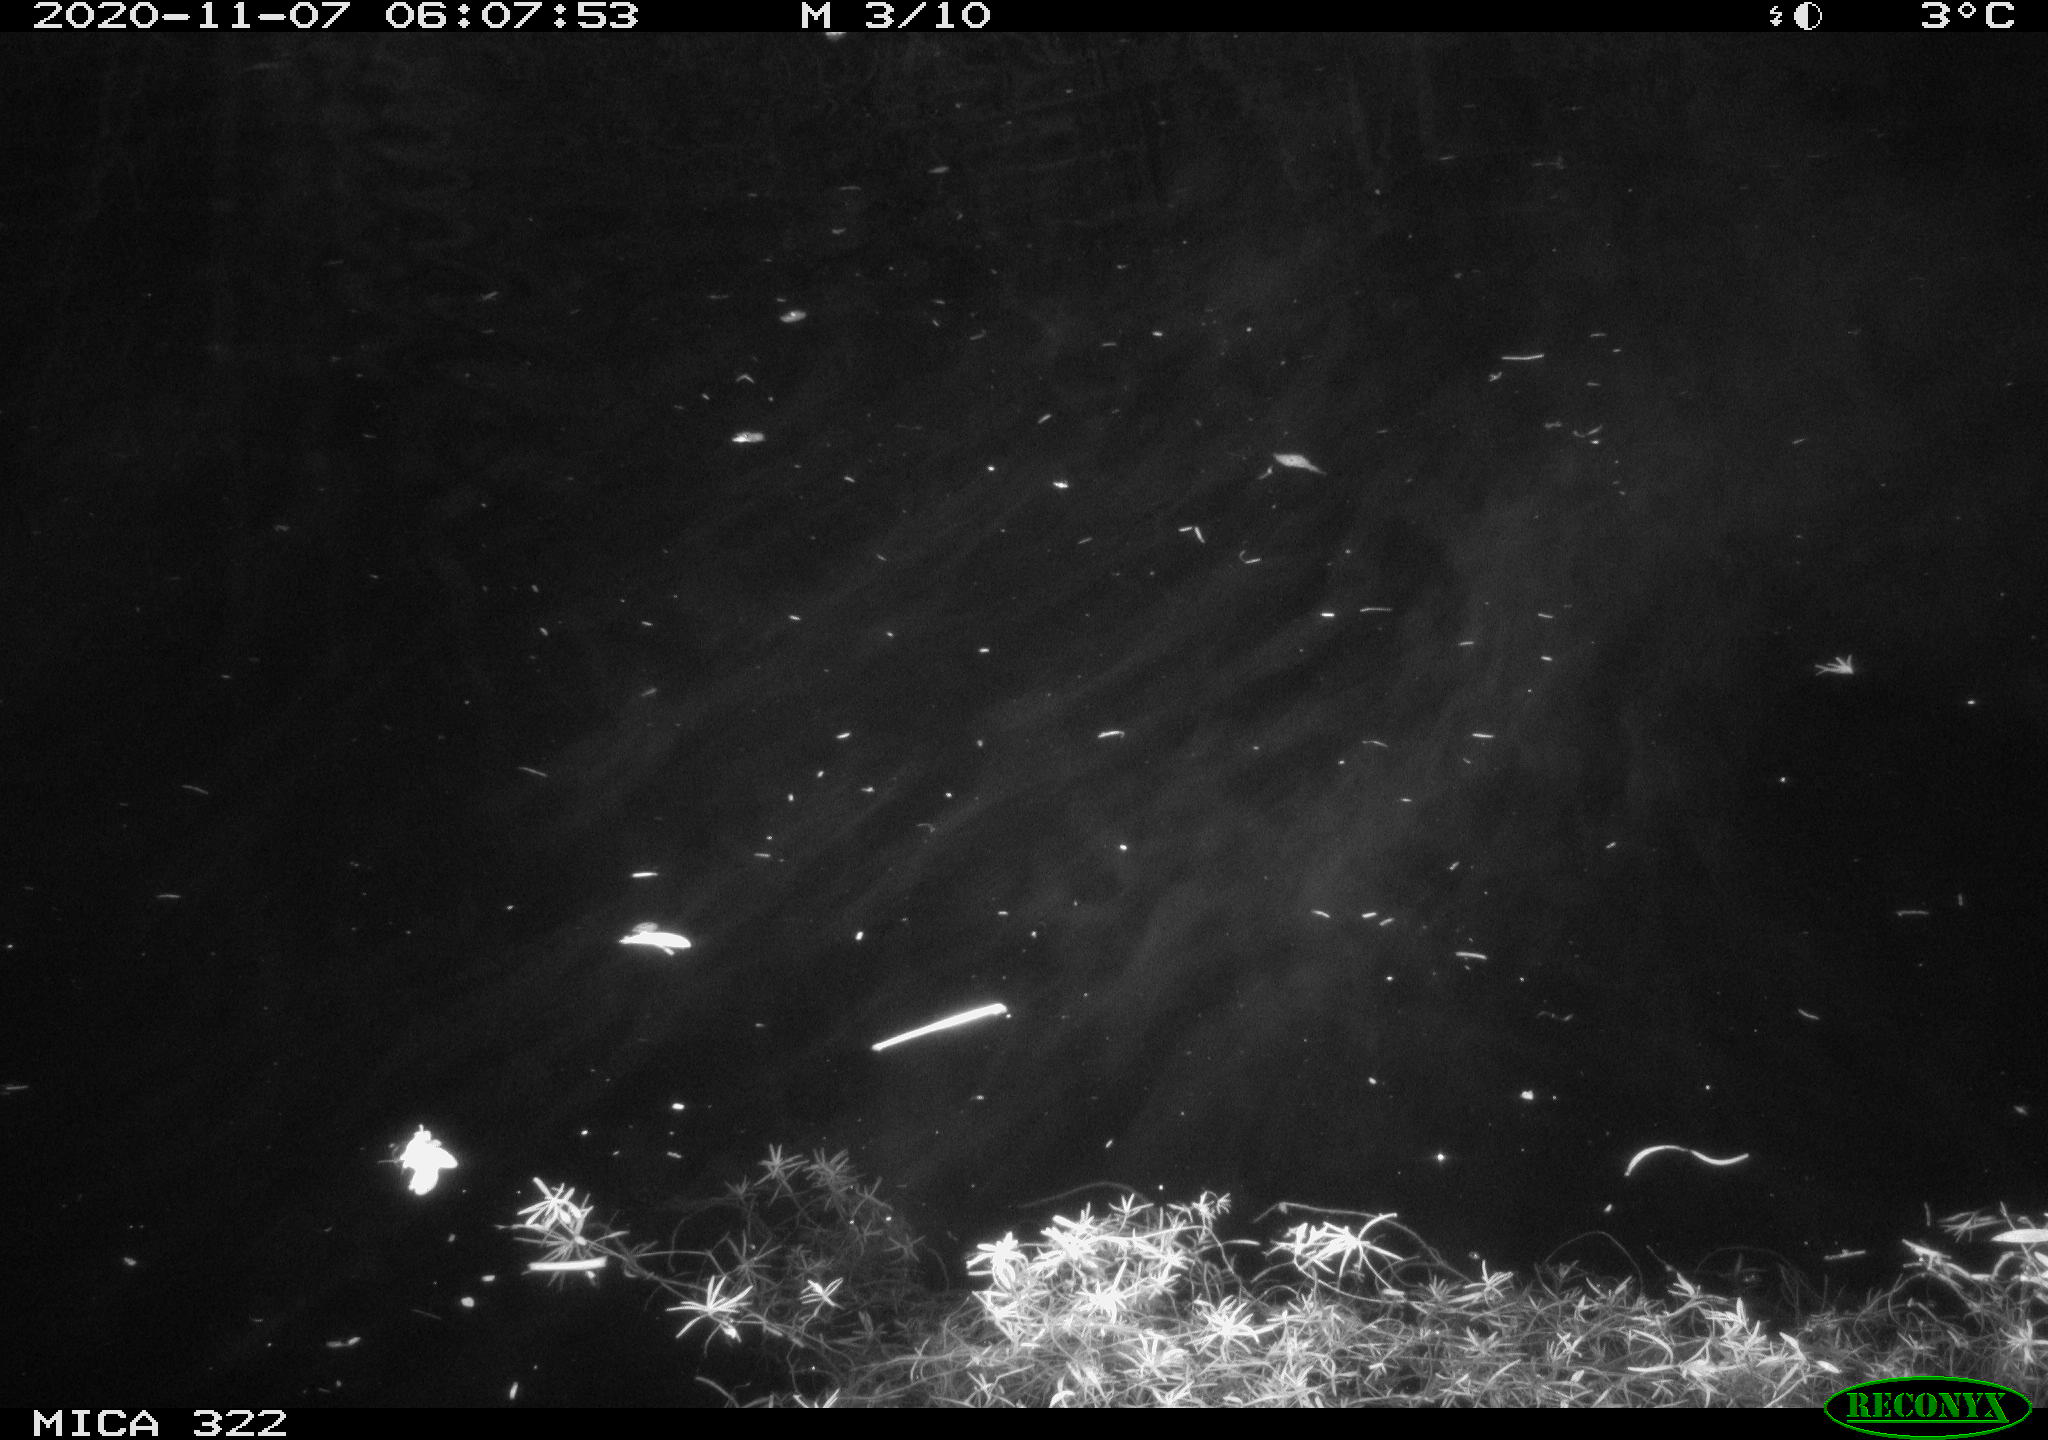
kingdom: Animalia
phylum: Chordata
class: Mammalia
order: Rodentia
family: Muridae
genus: Rattus
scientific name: Rattus norvegicus
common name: Brown rat
